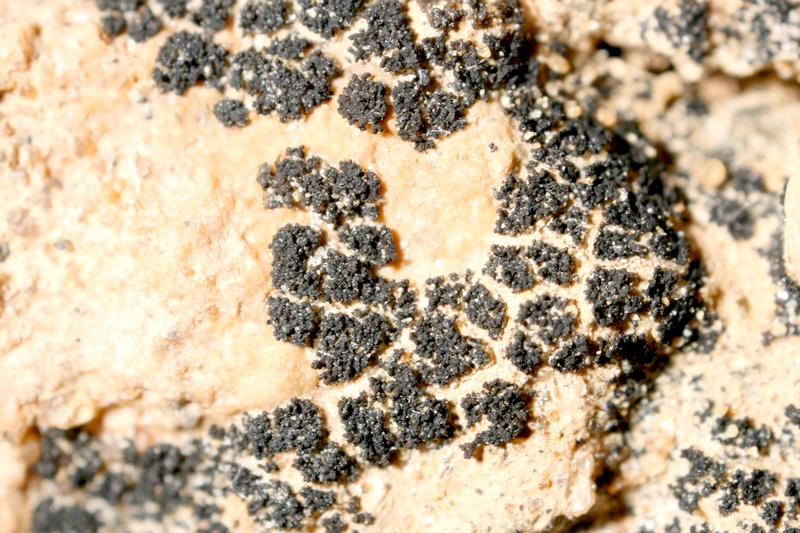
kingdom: Fungi
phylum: Ascomycota
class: Lichinomycetes
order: Lichinales
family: Lichinaceae
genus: Lichinella
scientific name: Lichinella stipatula
